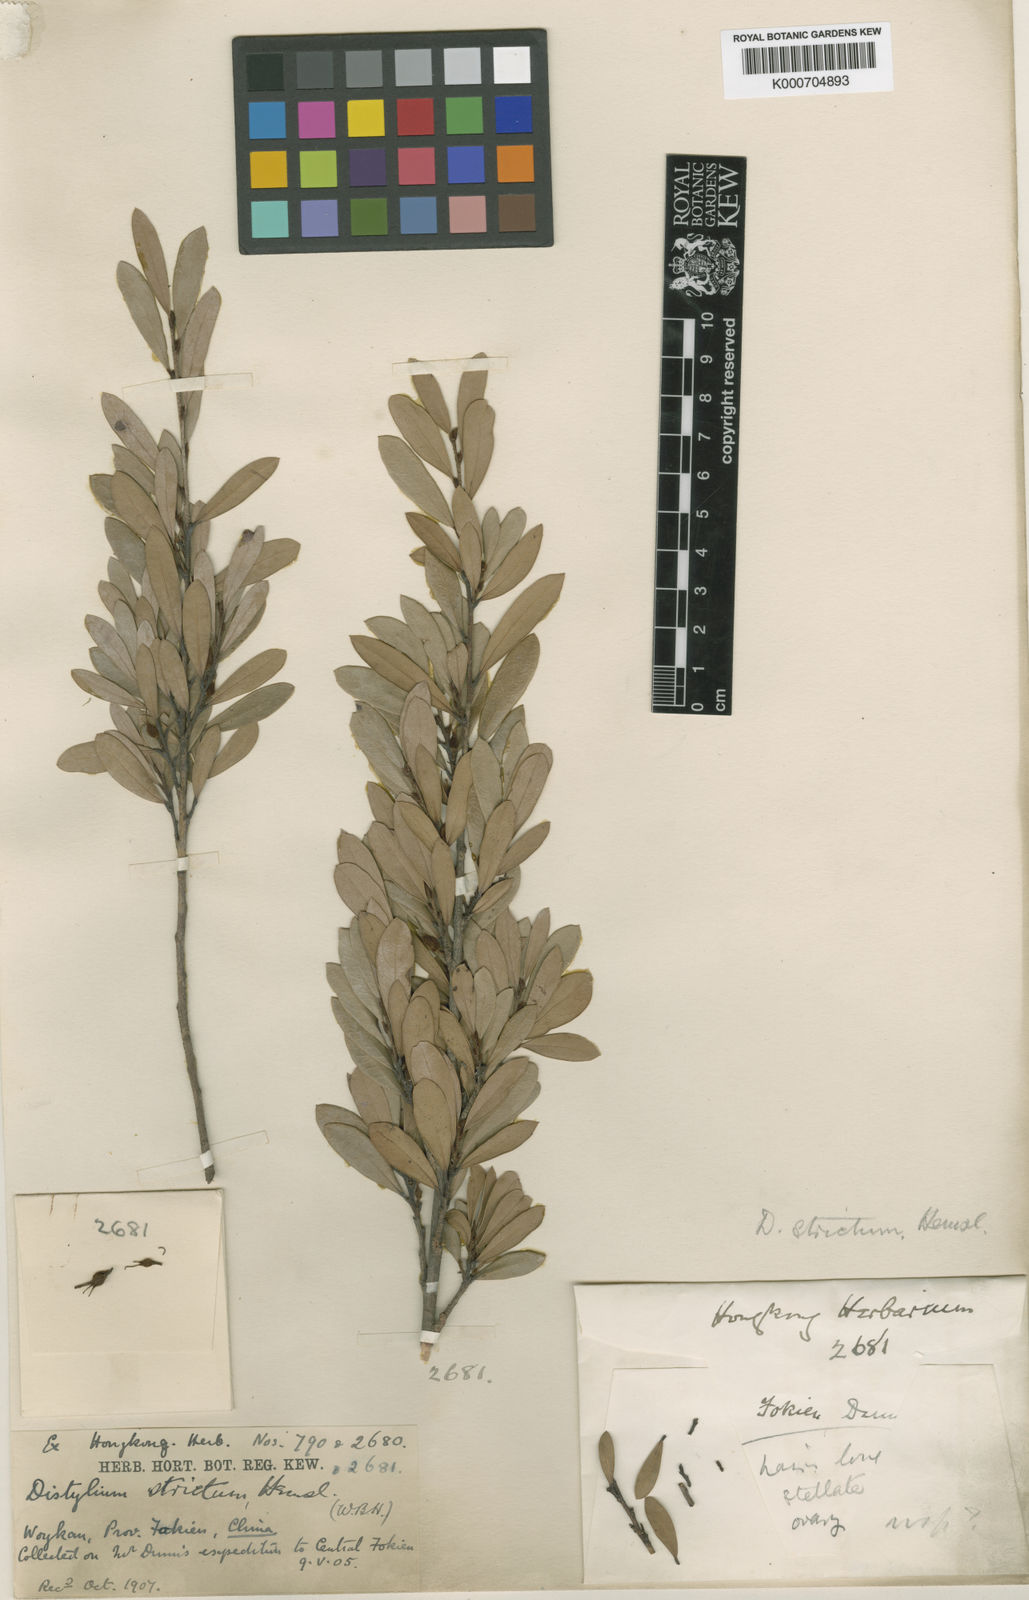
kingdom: Plantae
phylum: Tracheophyta
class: Magnoliopsida
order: Saxifragales
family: Hamamelidaceae
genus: Distylium
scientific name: Distylium buxifolium
